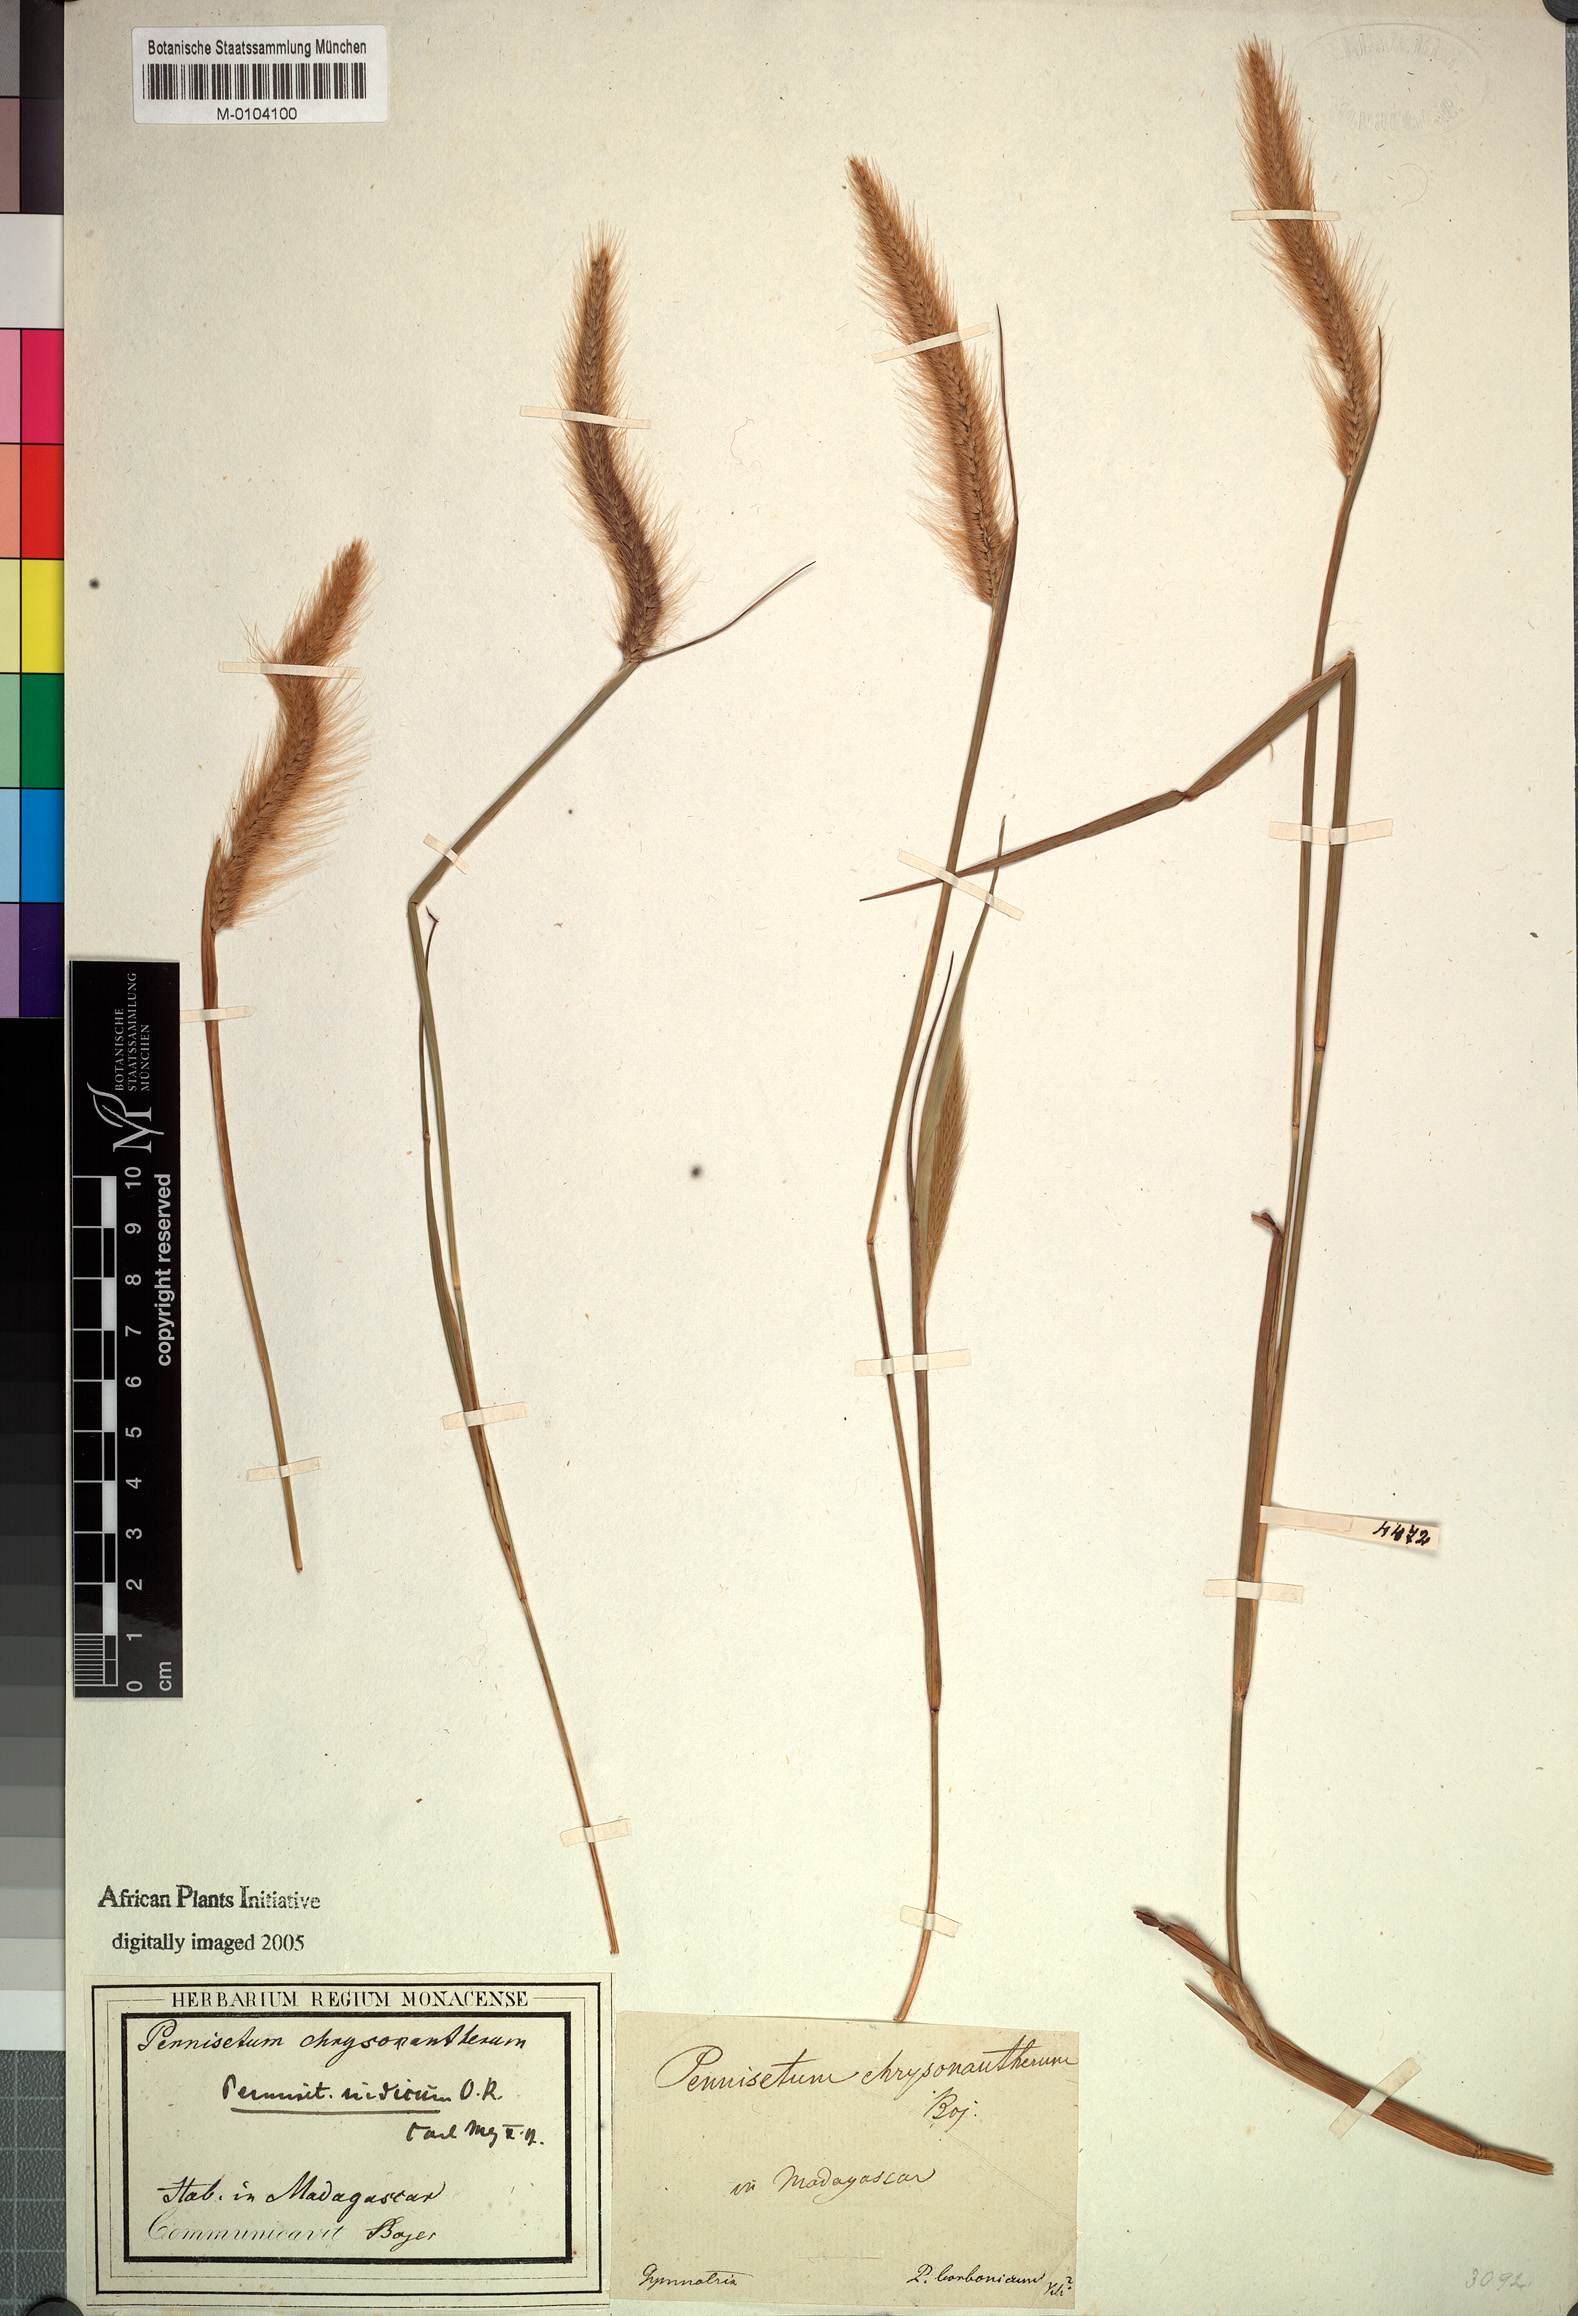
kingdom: Plantae
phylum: Tracheophyta
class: Liliopsida
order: Poales
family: Poaceae
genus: Setaria
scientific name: Setaria parviflora
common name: Knotroot bristle-grass
